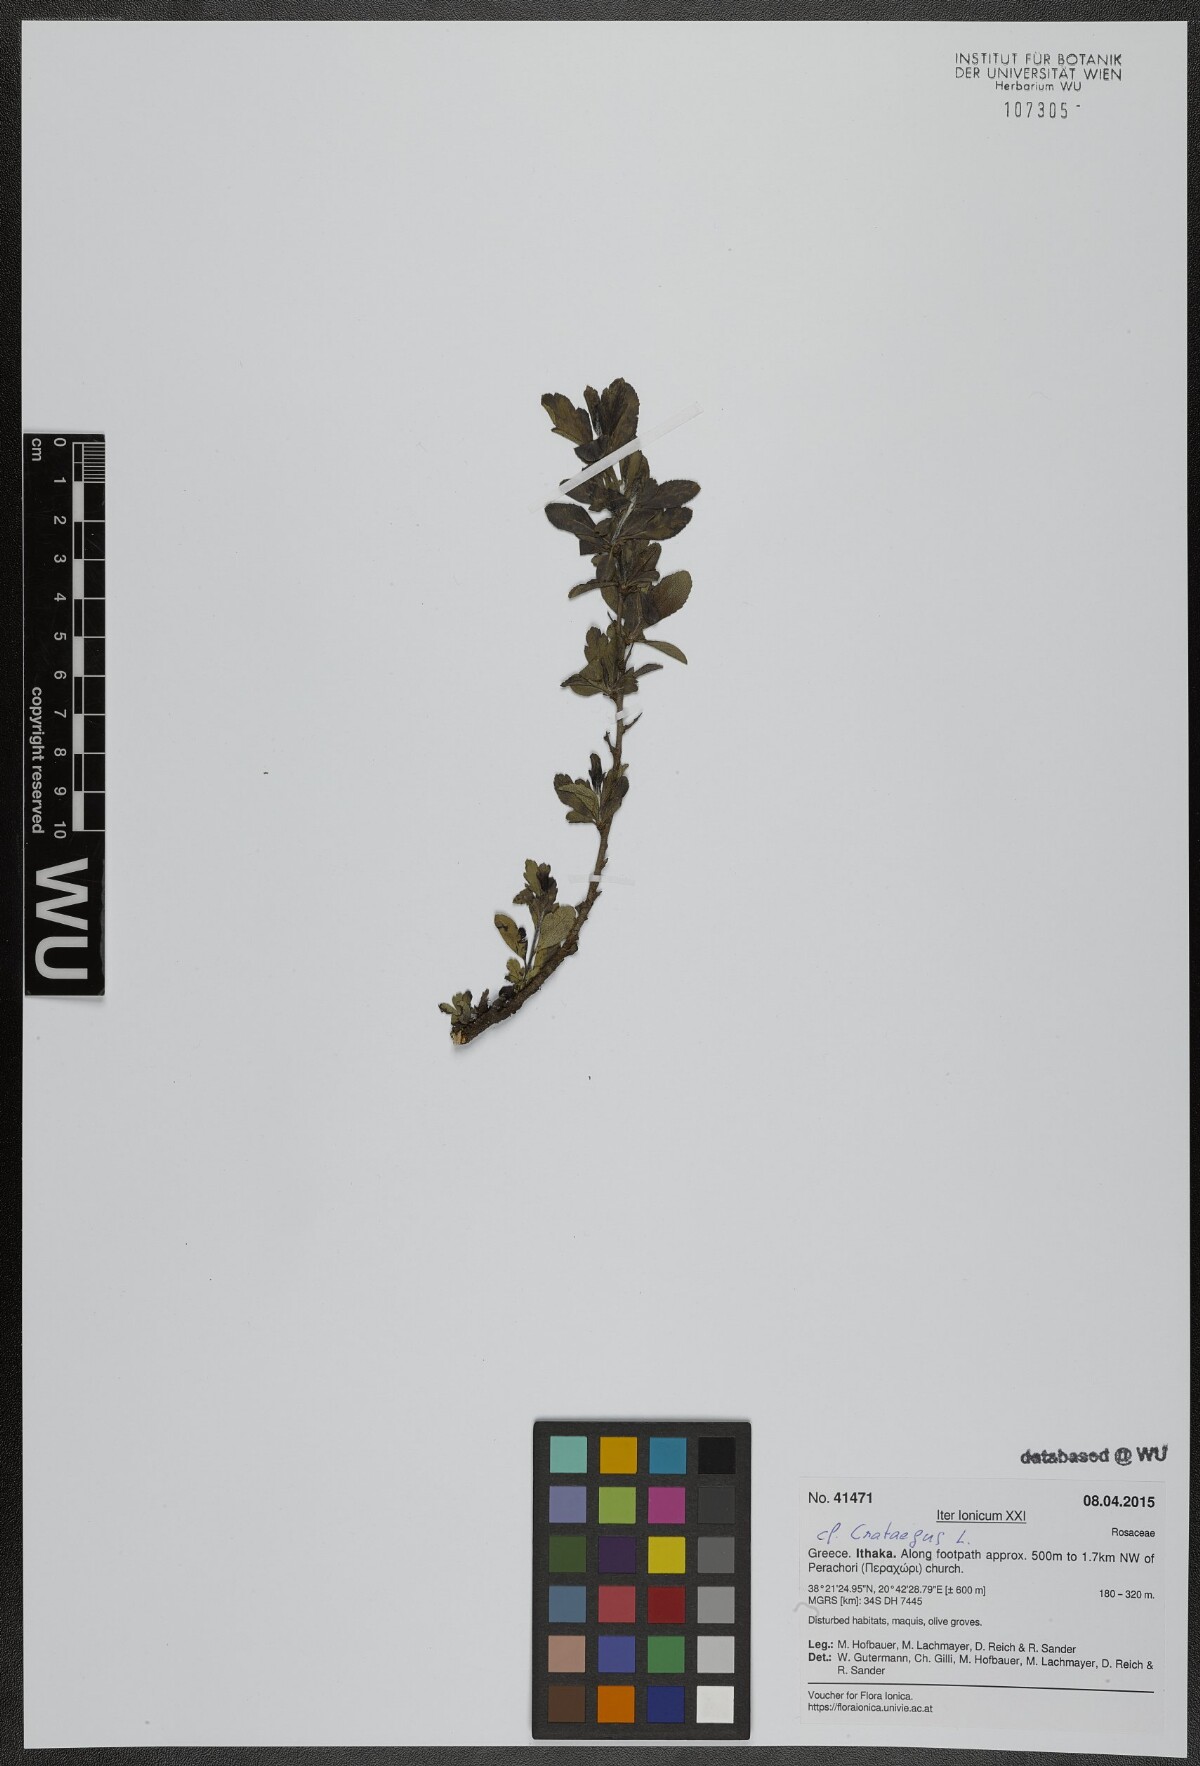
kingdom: Plantae
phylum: Tracheophyta
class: Magnoliopsida
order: Rosales
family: Rosaceae
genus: Crataegus
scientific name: Crataegus
